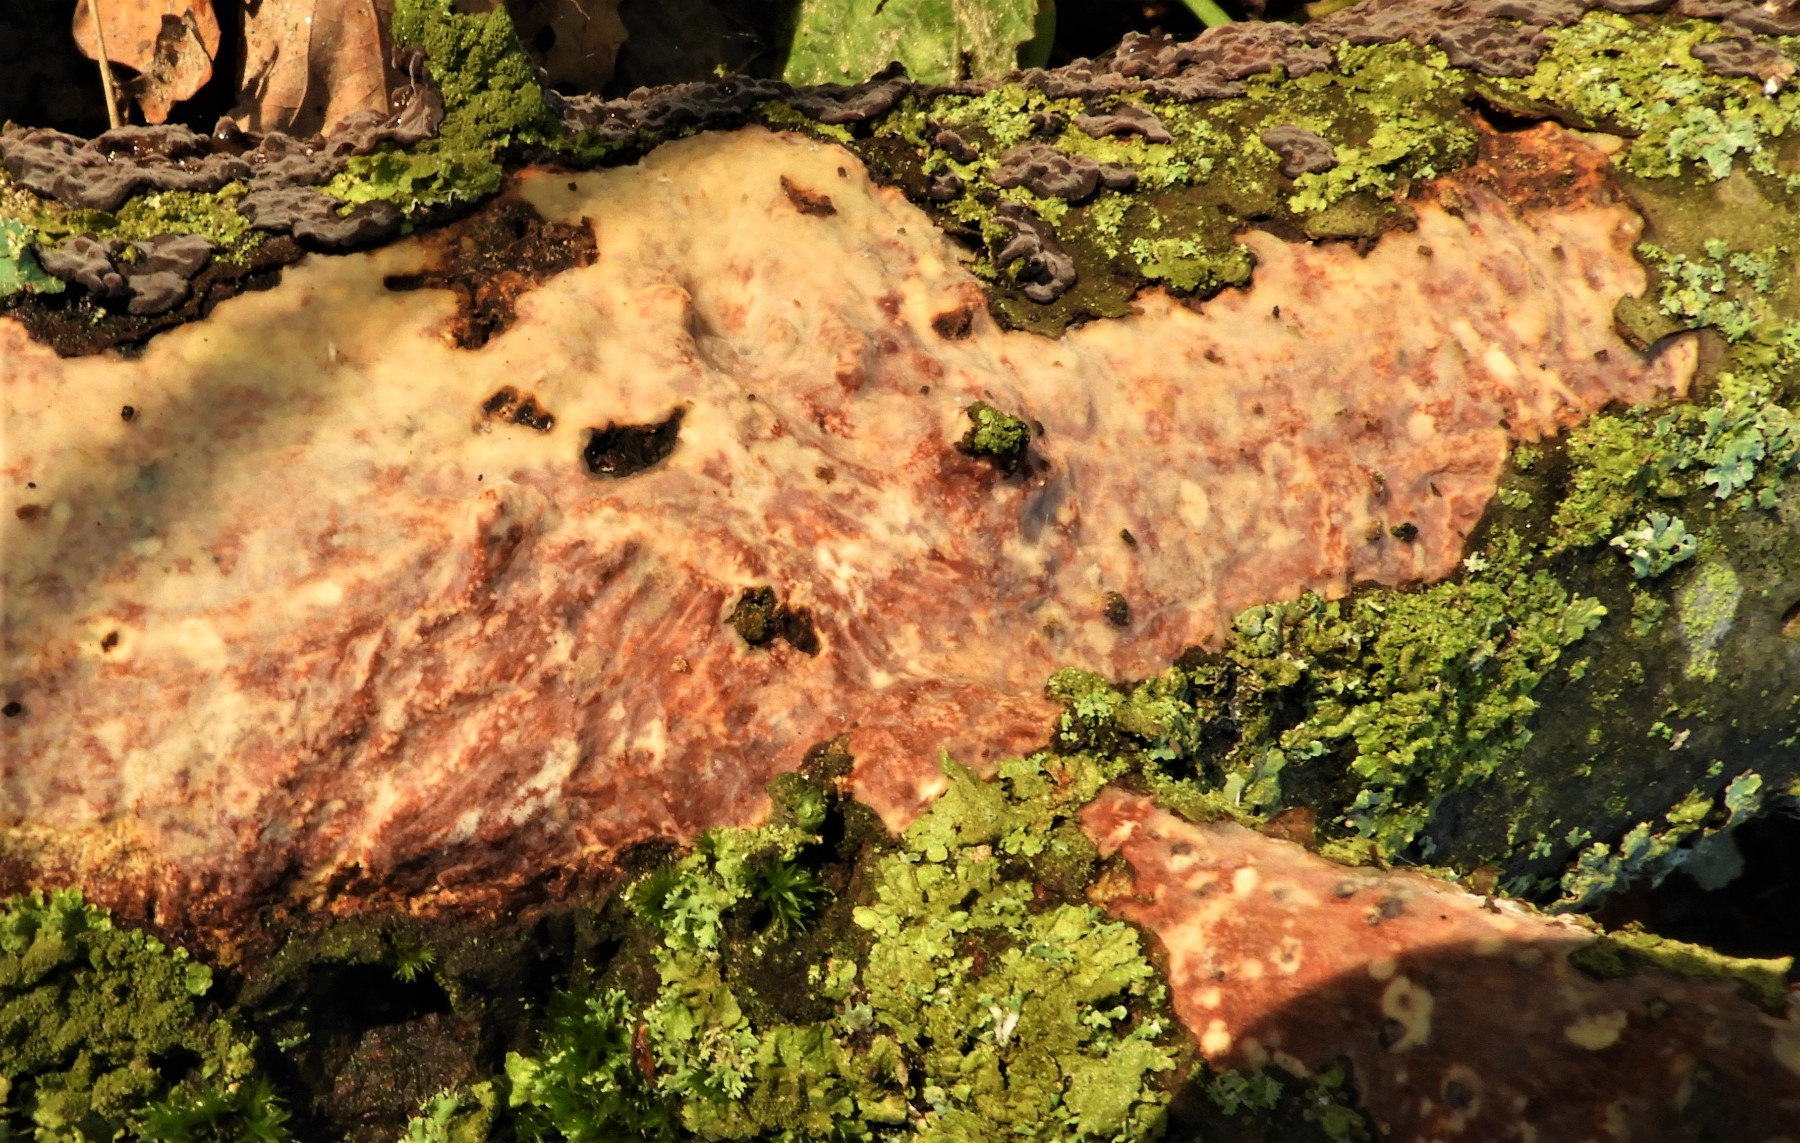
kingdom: Fungi
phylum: Basidiomycota
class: Agaricomycetes
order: Corticiales
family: Vuilleminiaceae
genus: Vuilleminia
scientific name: Vuilleminia
